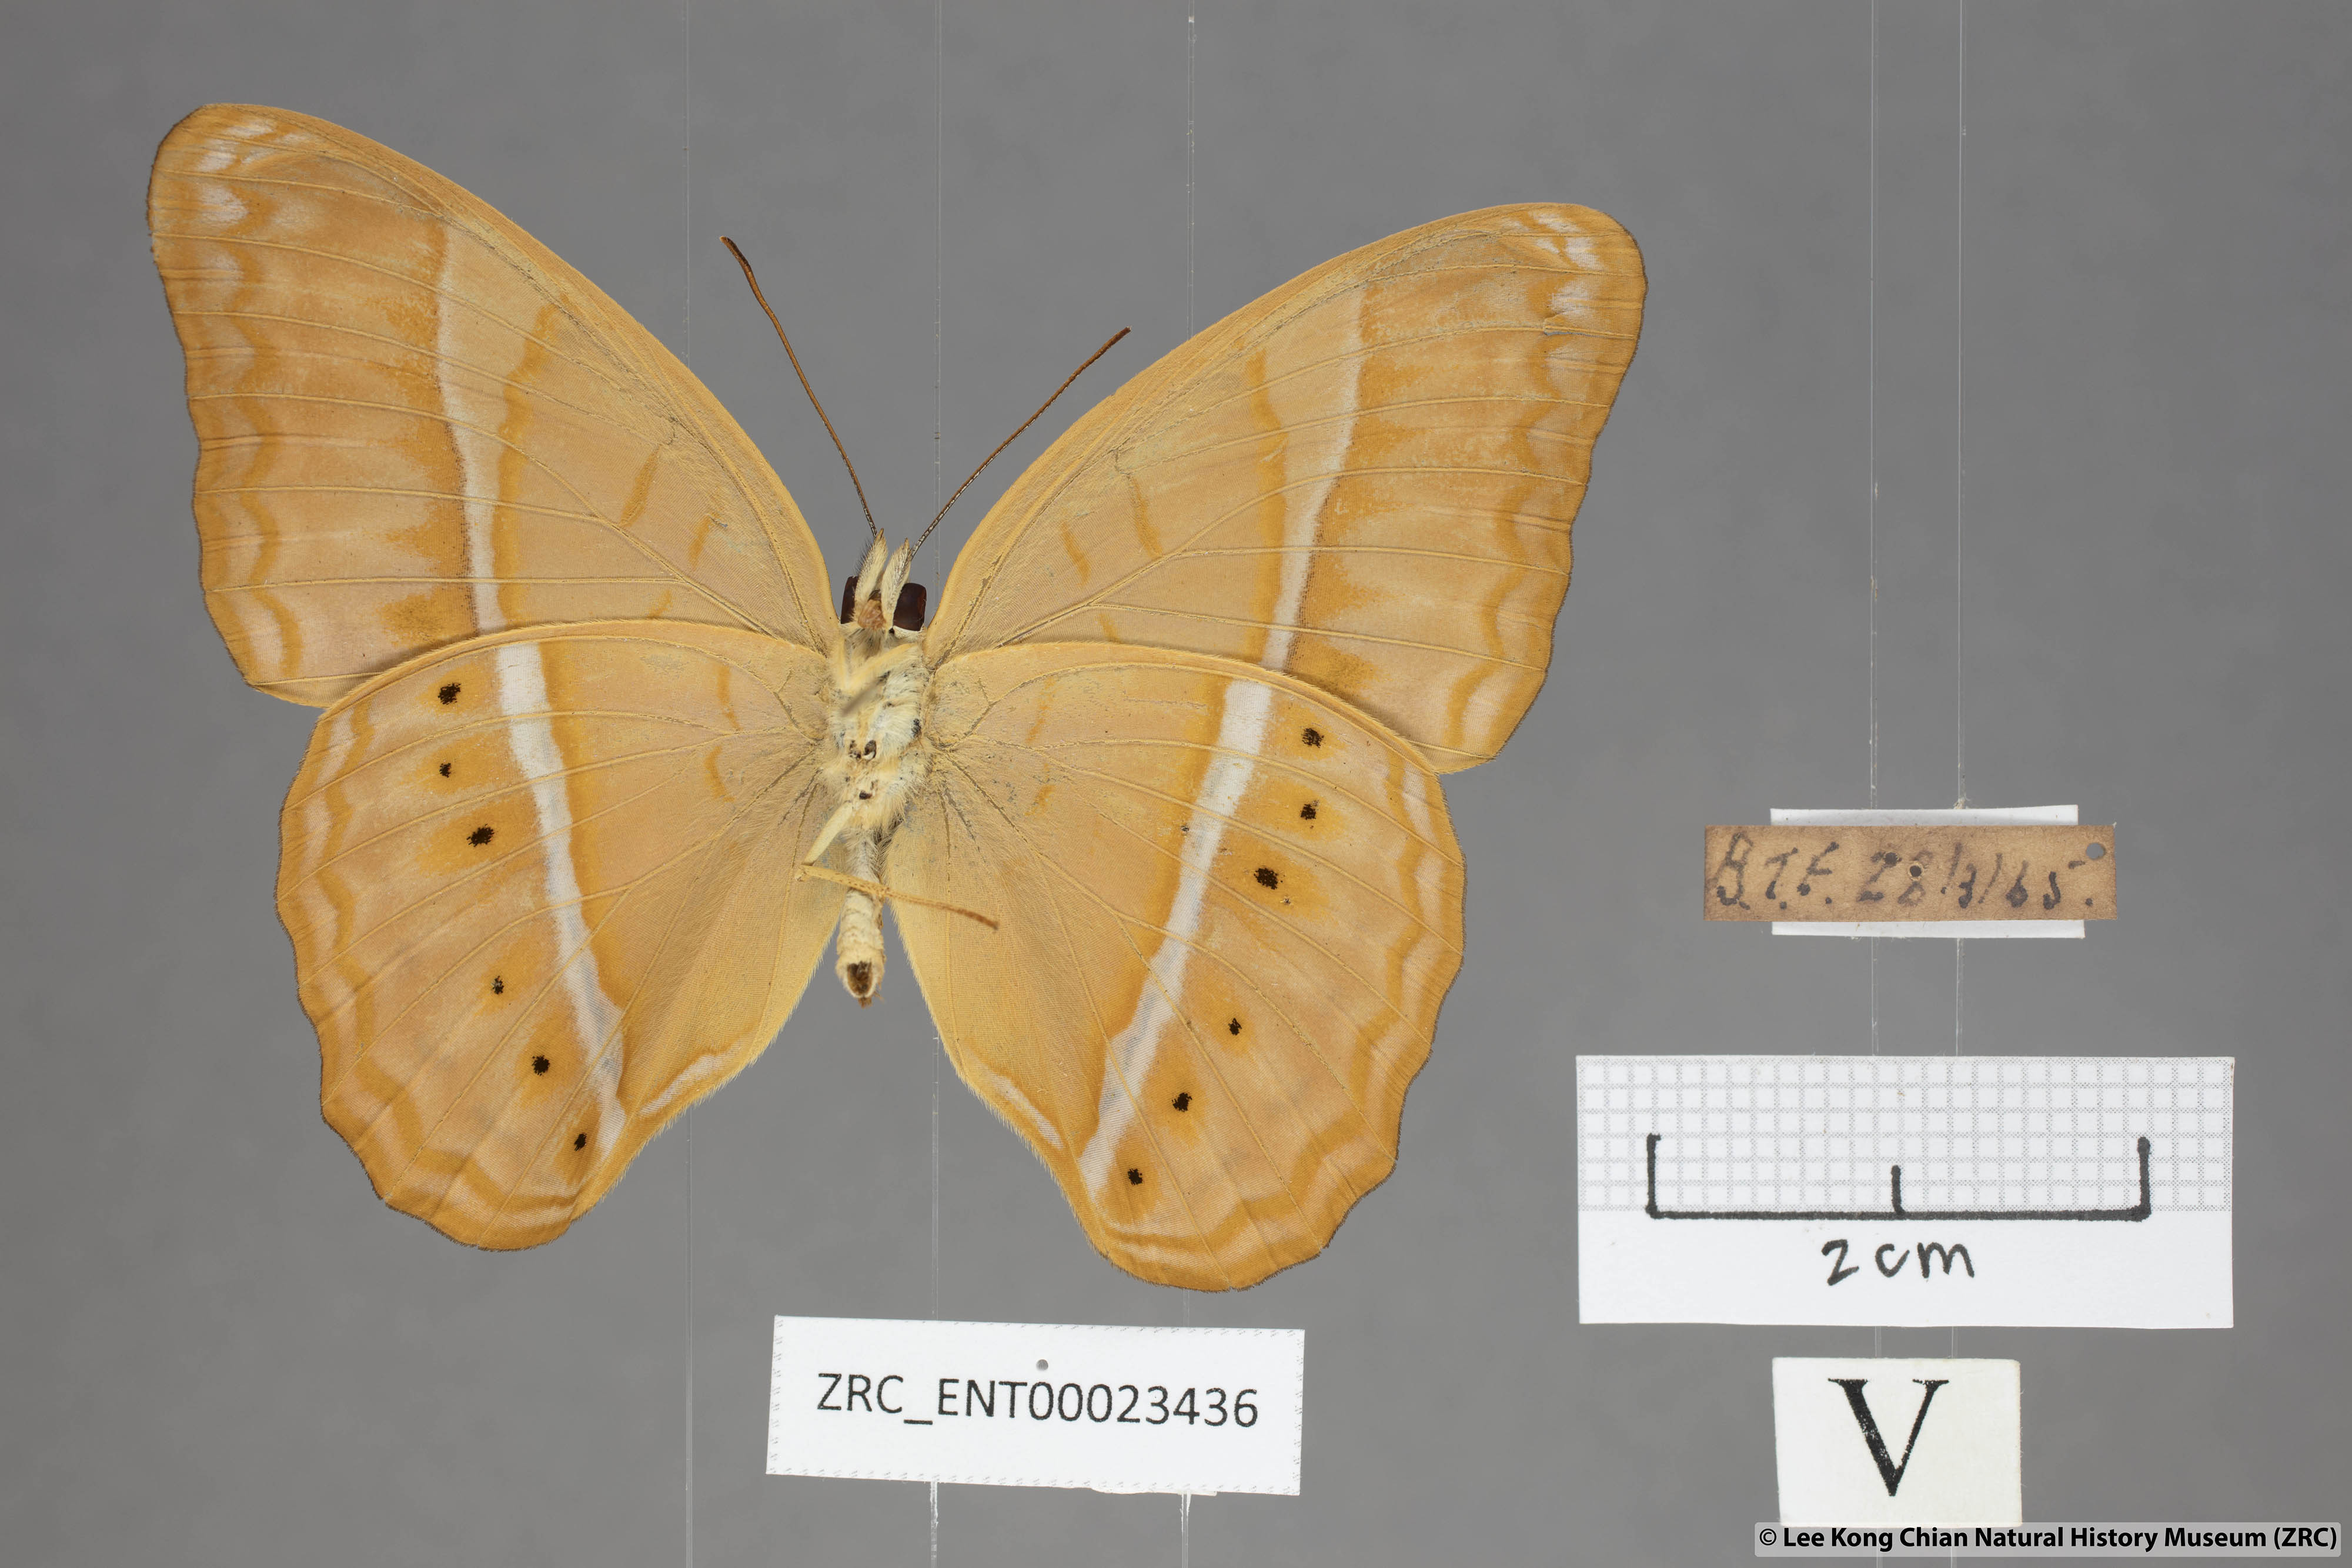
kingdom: Animalia
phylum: Arthropoda
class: Insecta
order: Lepidoptera
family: Nymphalidae
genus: Cirrochroa
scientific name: Cirrochroa malaya
